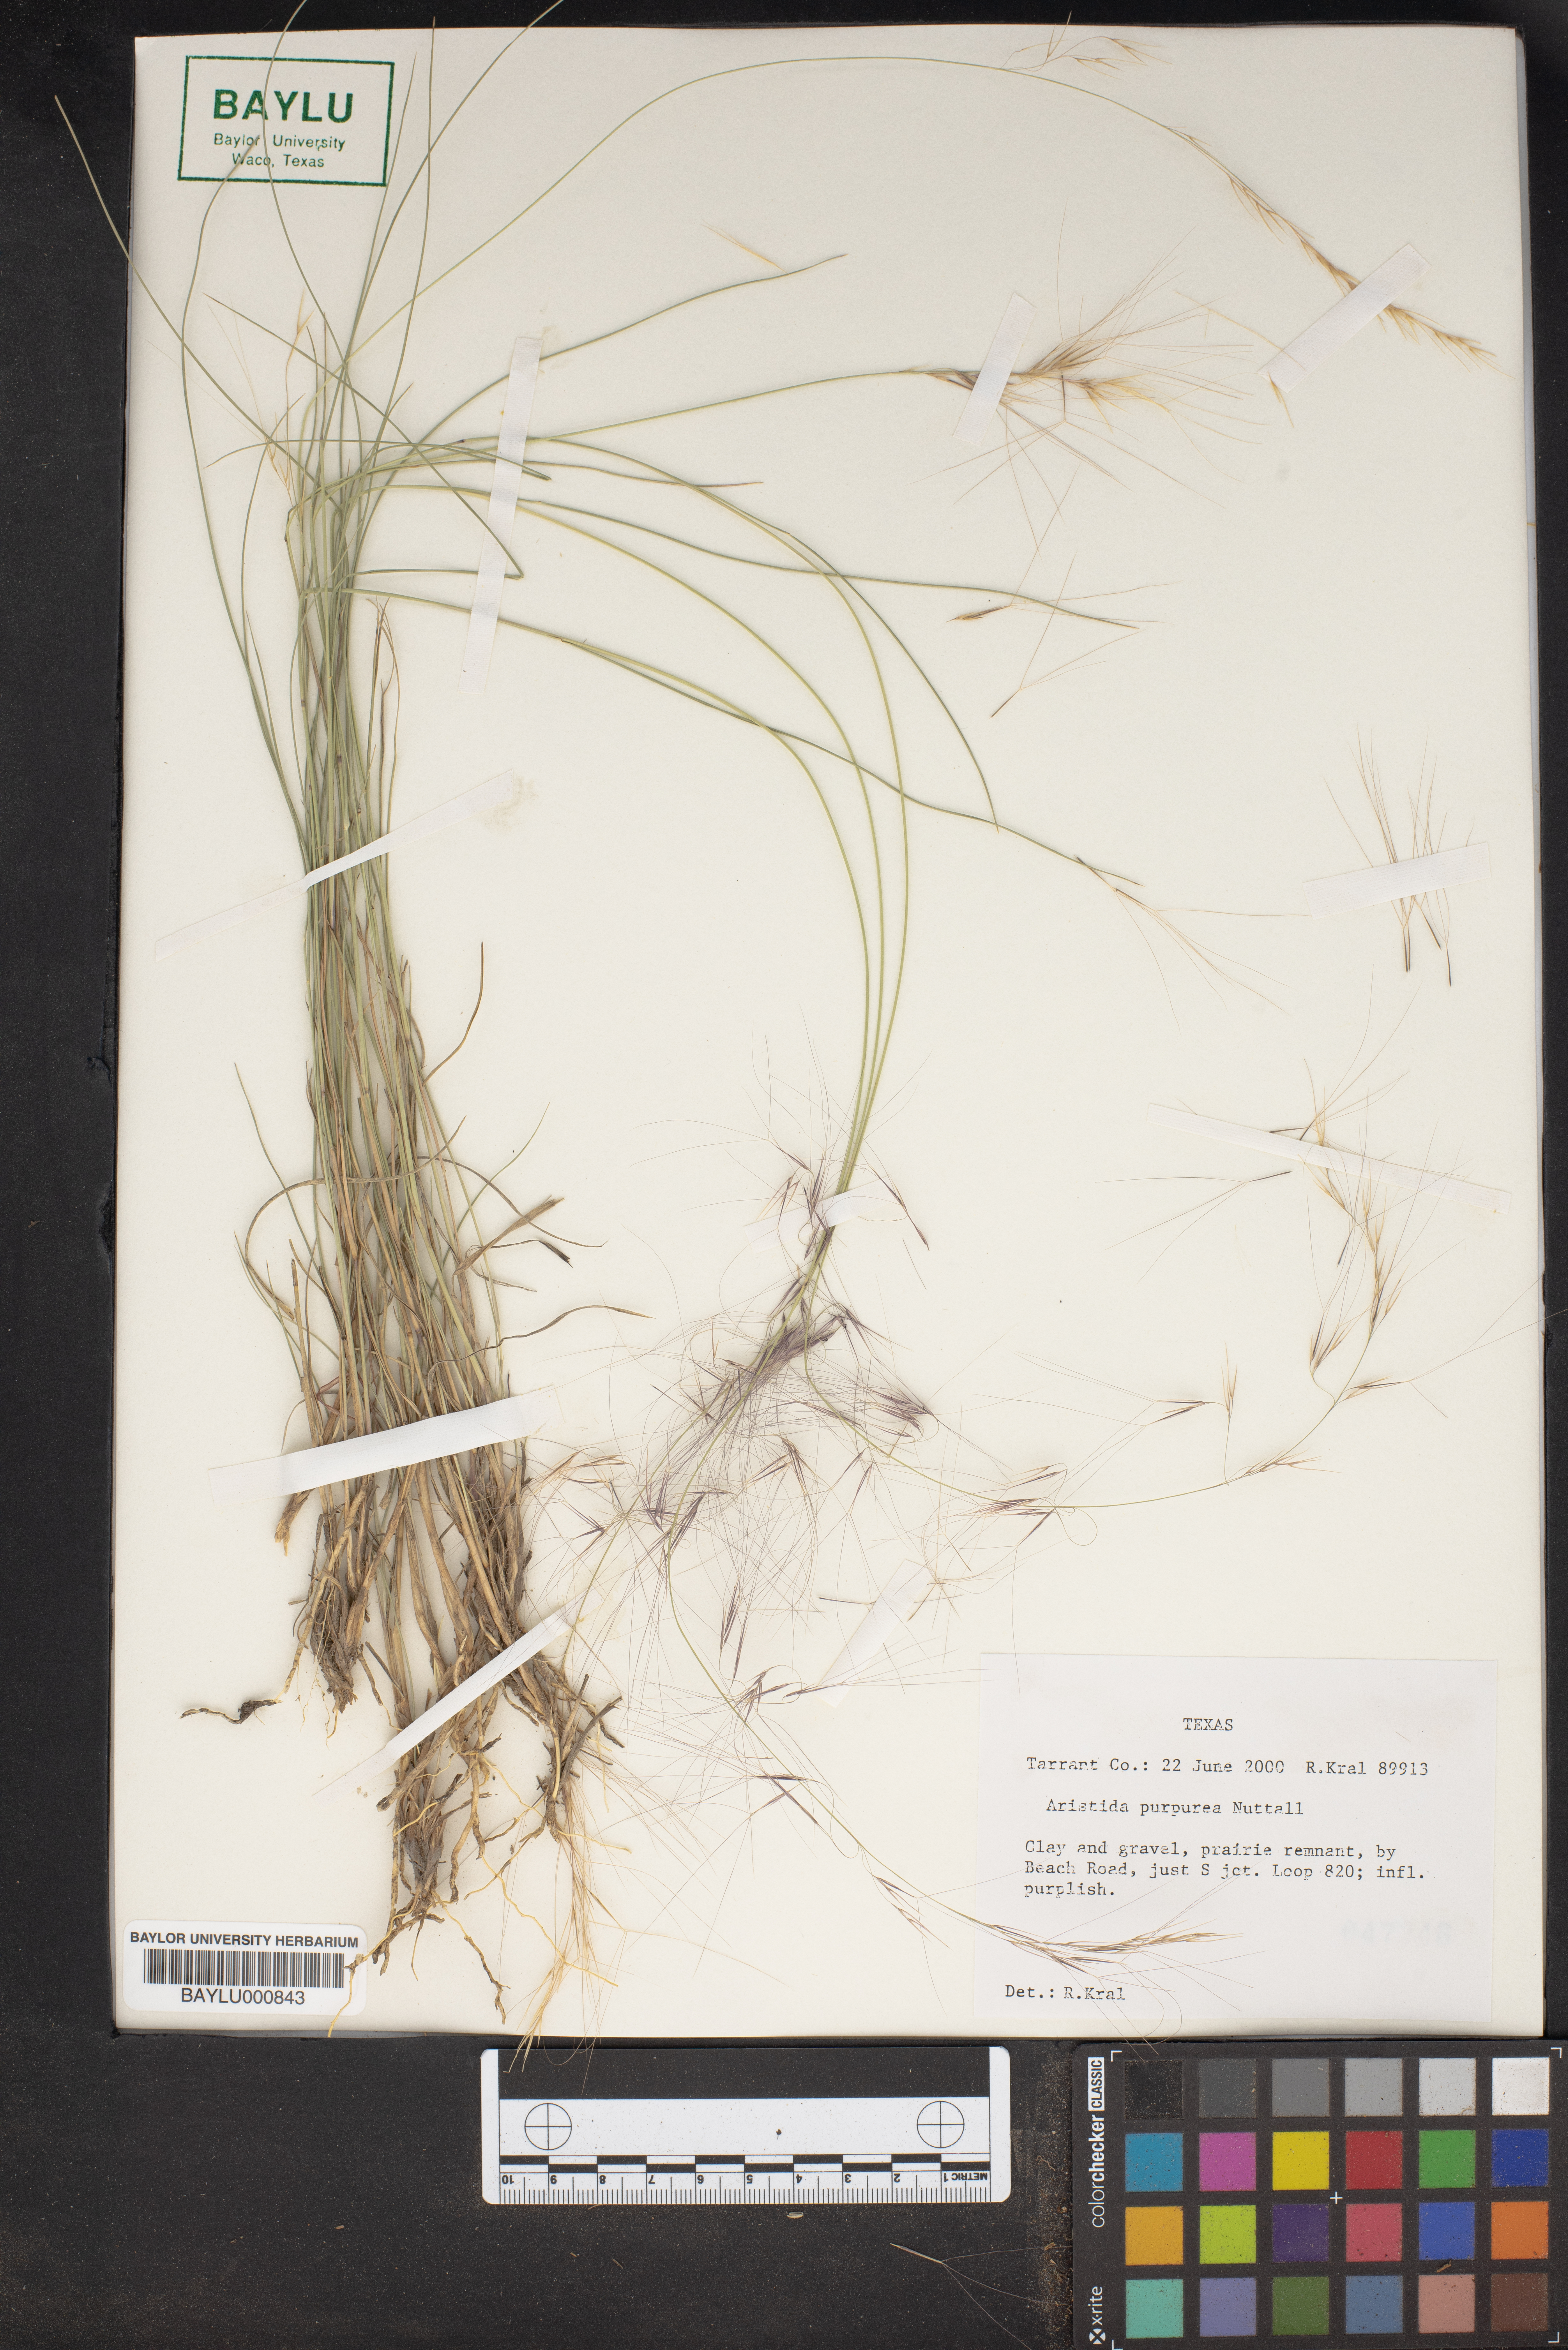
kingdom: Plantae
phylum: Tracheophyta
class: Liliopsida
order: Poales
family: Poaceae
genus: Aristida
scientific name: Aristida purpurea
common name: Purple threeawn
